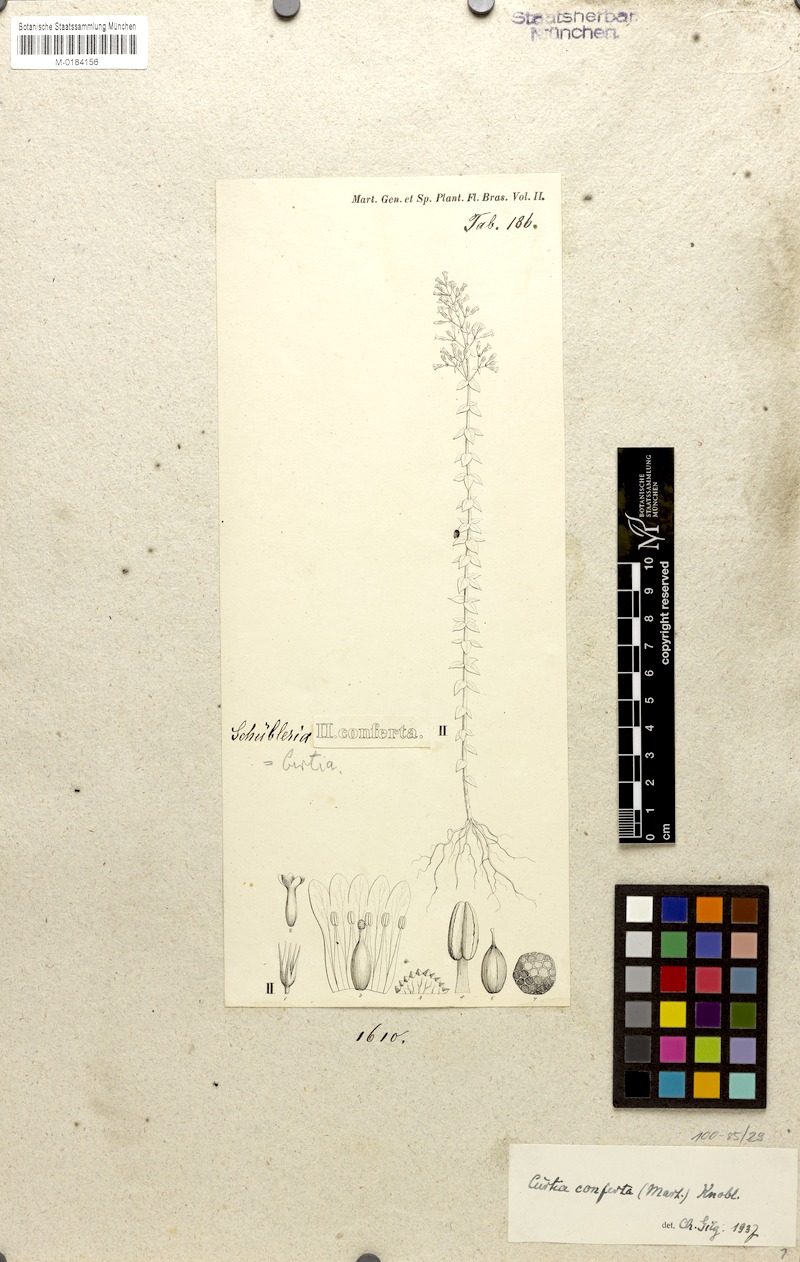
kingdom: Plantae
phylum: Tracheophyta
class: Magnoliopsida
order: Gentianales
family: Gentianaceae
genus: Curtia
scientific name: Curtia conferta
